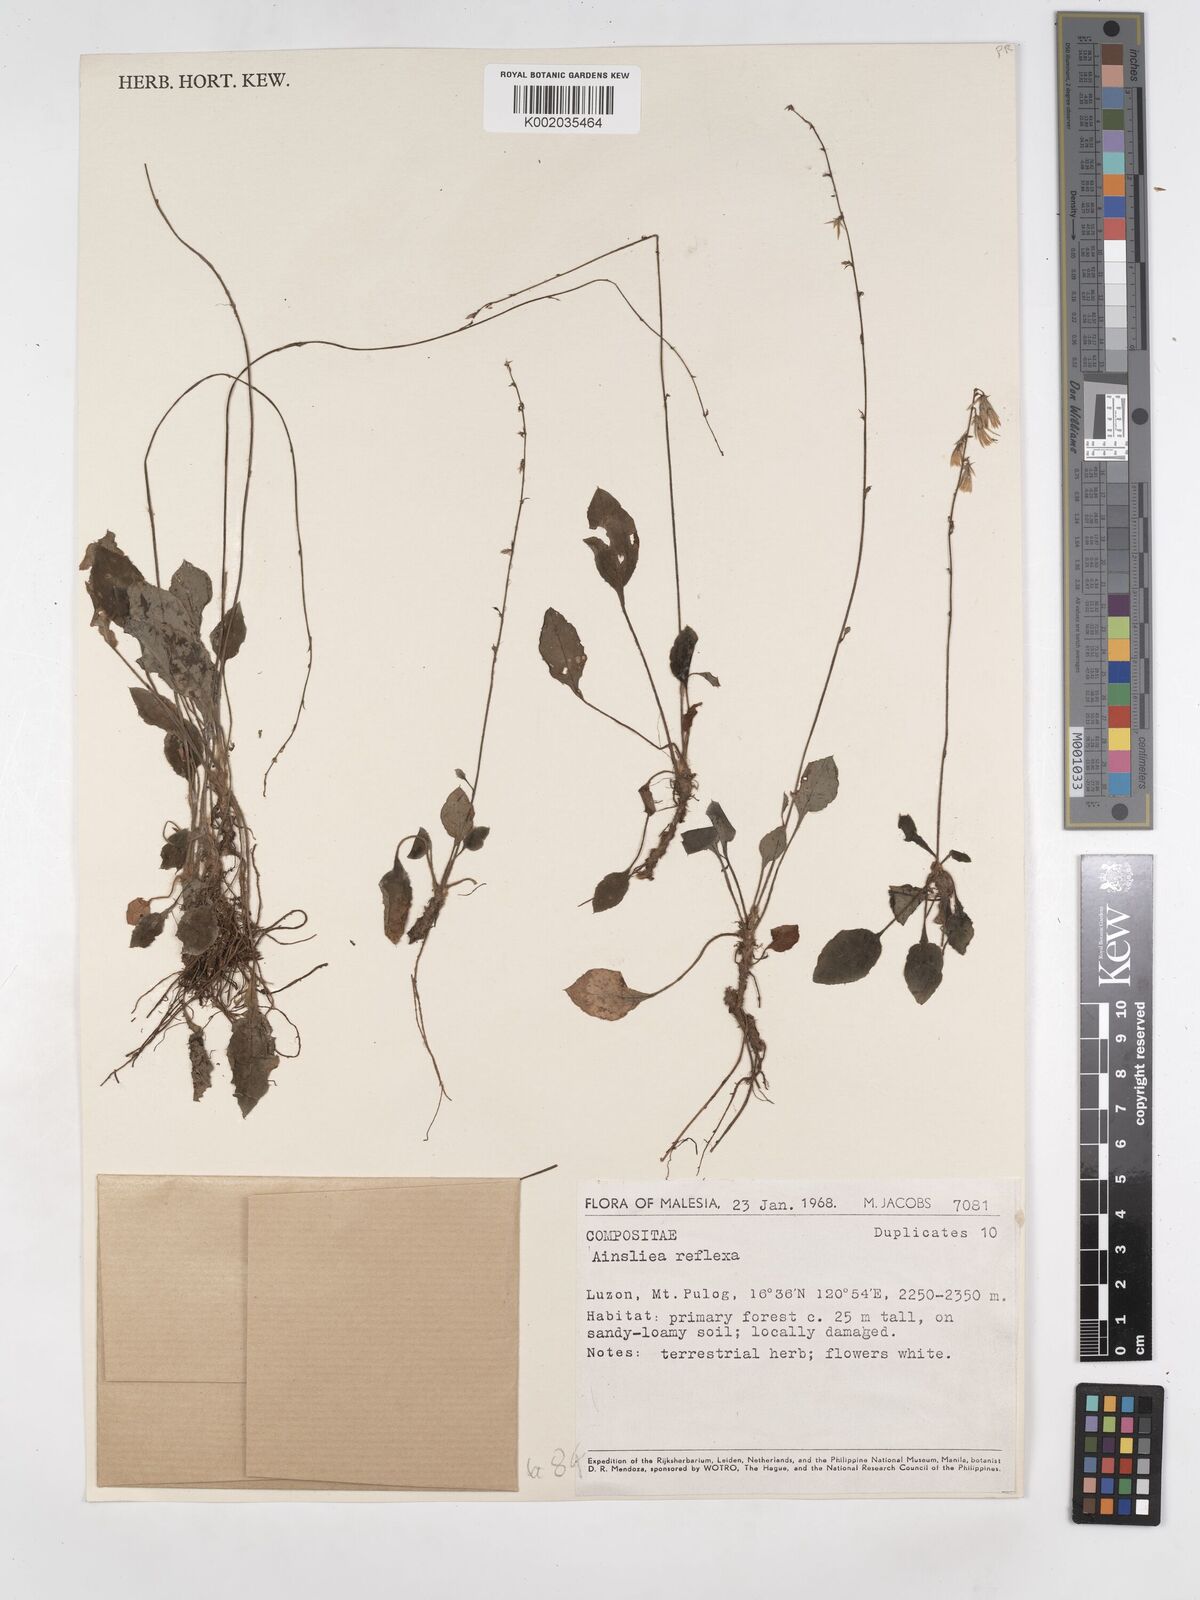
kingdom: Plantae
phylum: Tracheophyta
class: Magnoliopsida
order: Asterales
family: Asteraceae
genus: Ainsliaea
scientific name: Ainsliaea reflexa
